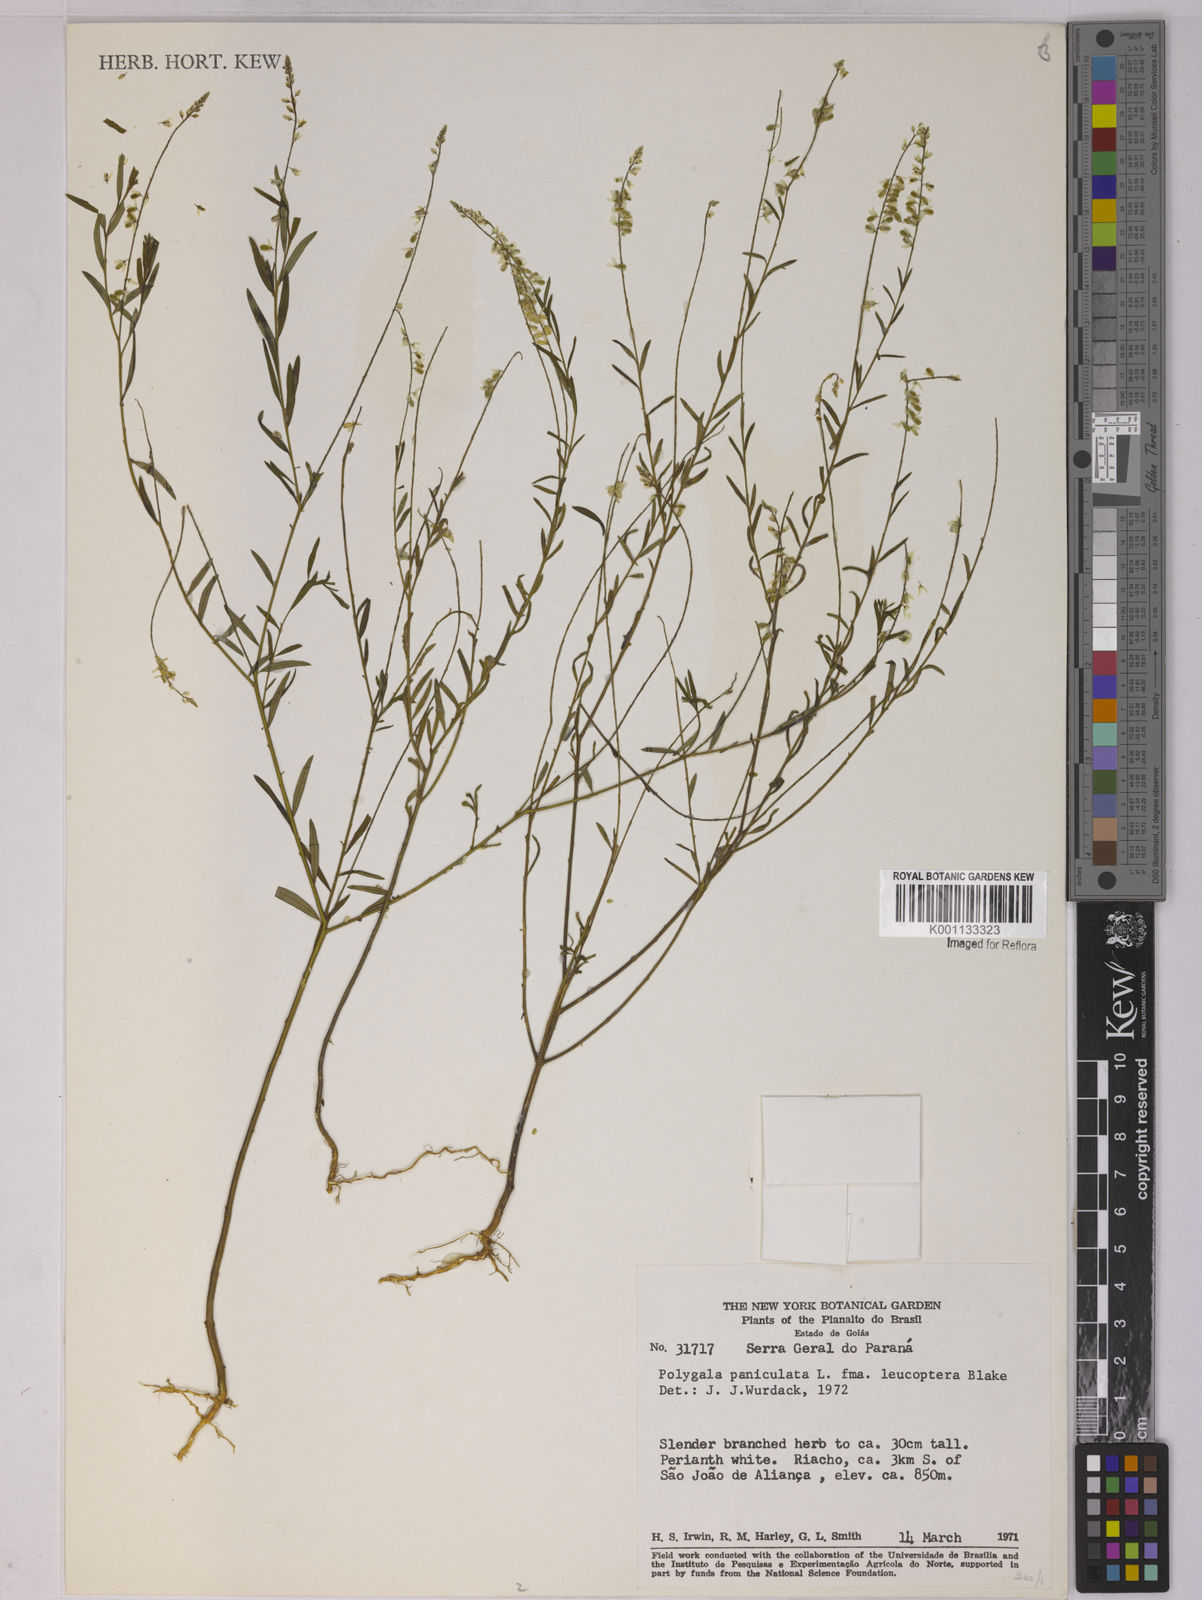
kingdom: Plantae
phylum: Tracheophyta
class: Magnoliopsida
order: Fabales
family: Polygalaceae
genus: Polygala
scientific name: Polygala paniculata
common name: Orosne
